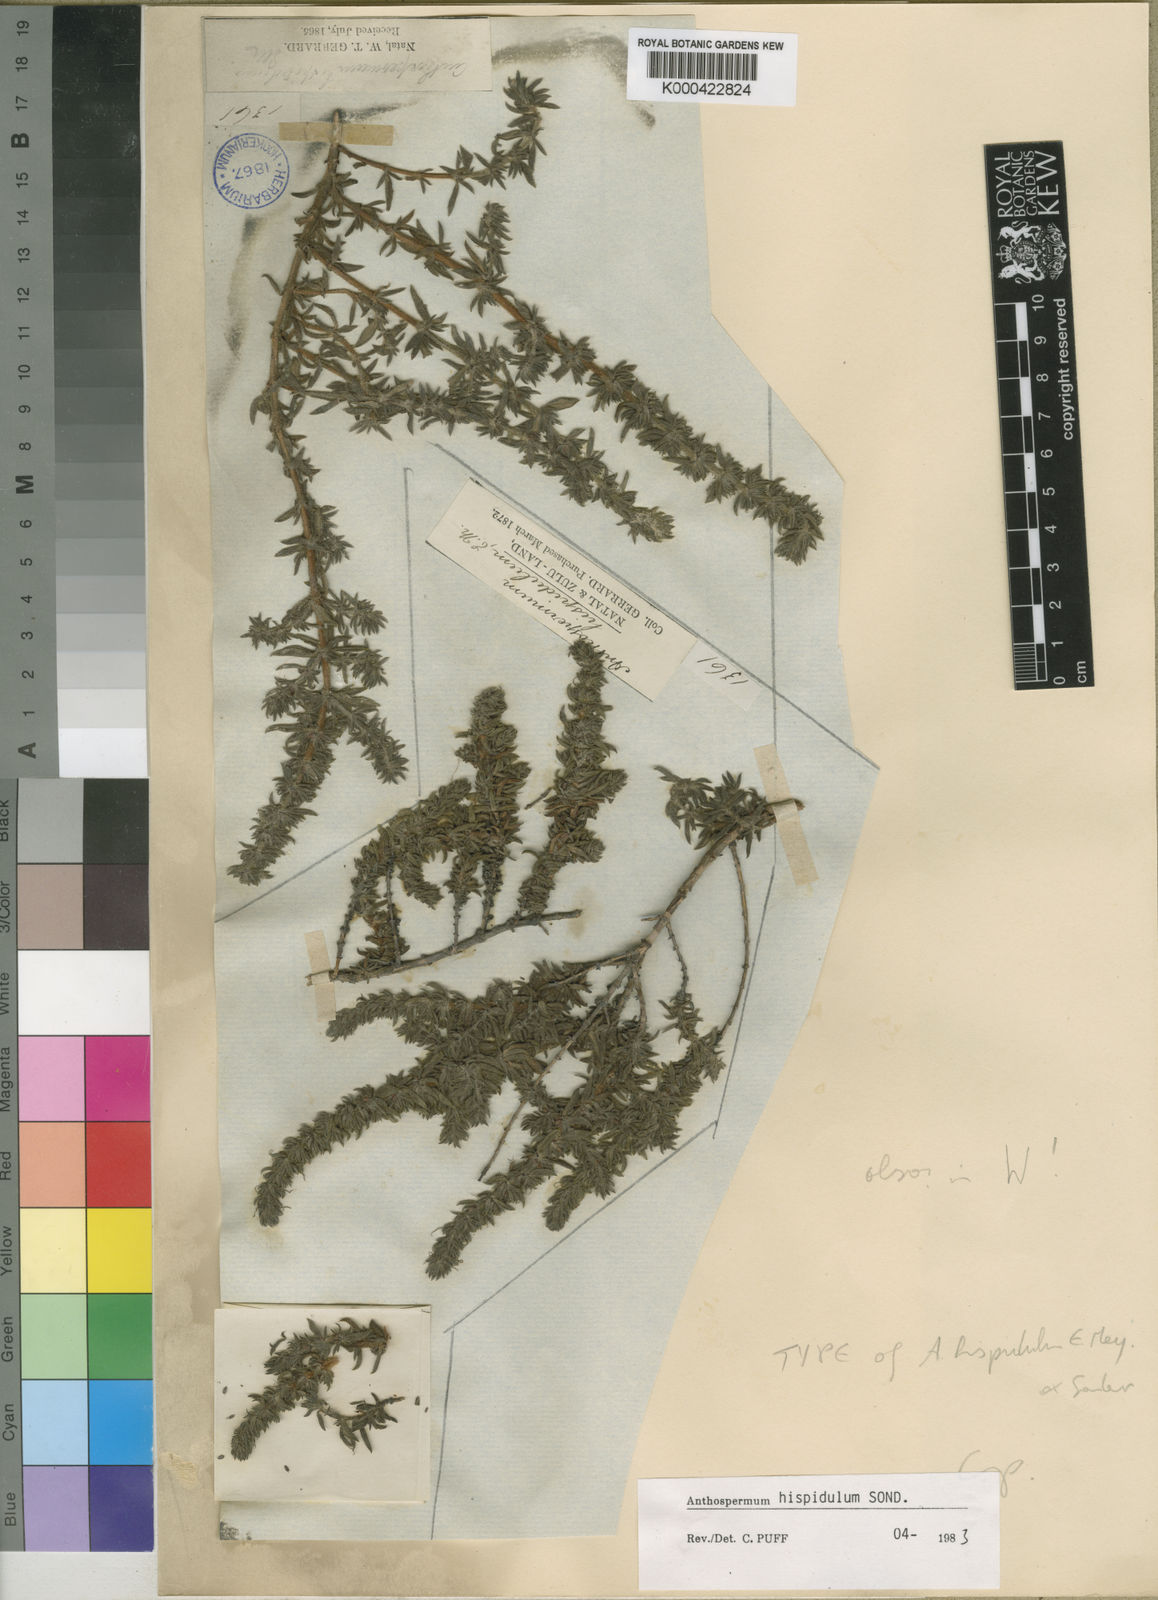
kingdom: Plantae
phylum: Tracheophyta
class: Magnoliopsida
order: Gentianales
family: Rubiaceae
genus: Anthospermum
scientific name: Anthospermum hispidulum
